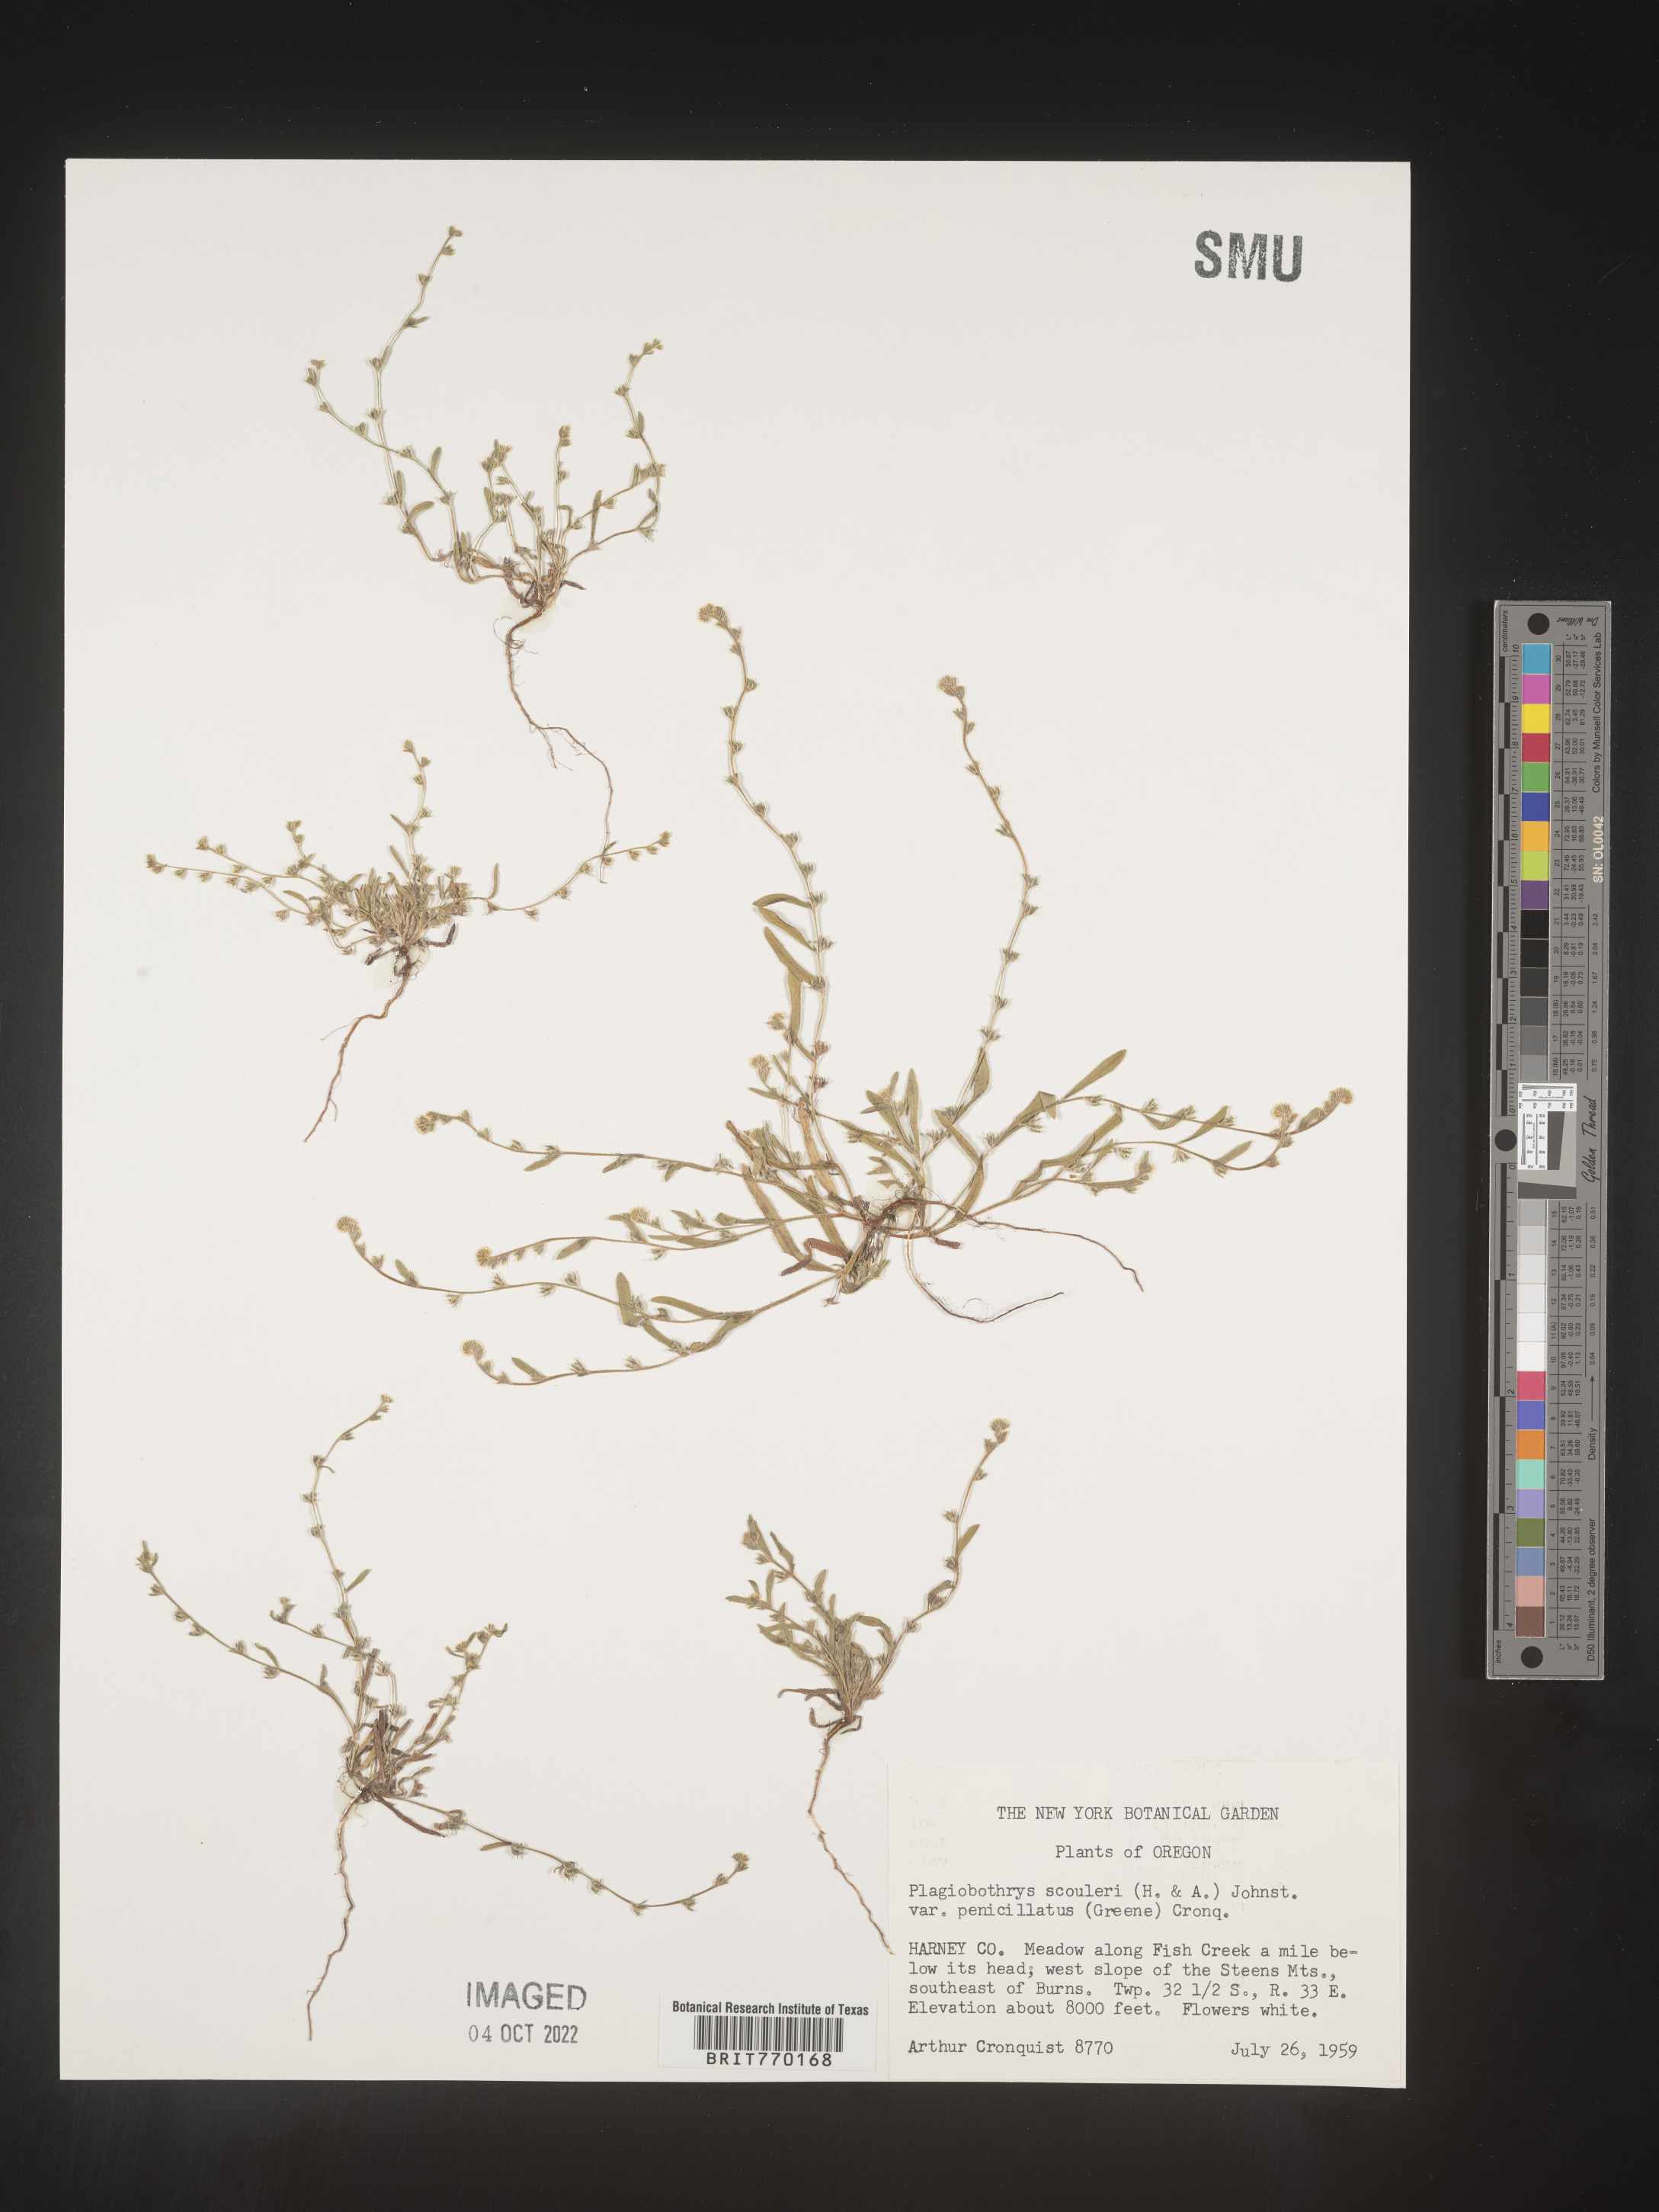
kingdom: Plantae
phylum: Tracheophyta
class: Magnoliopsida
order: Boraginales
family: Boraginaceae
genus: Plagiobothrys
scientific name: Plagiobothrys
